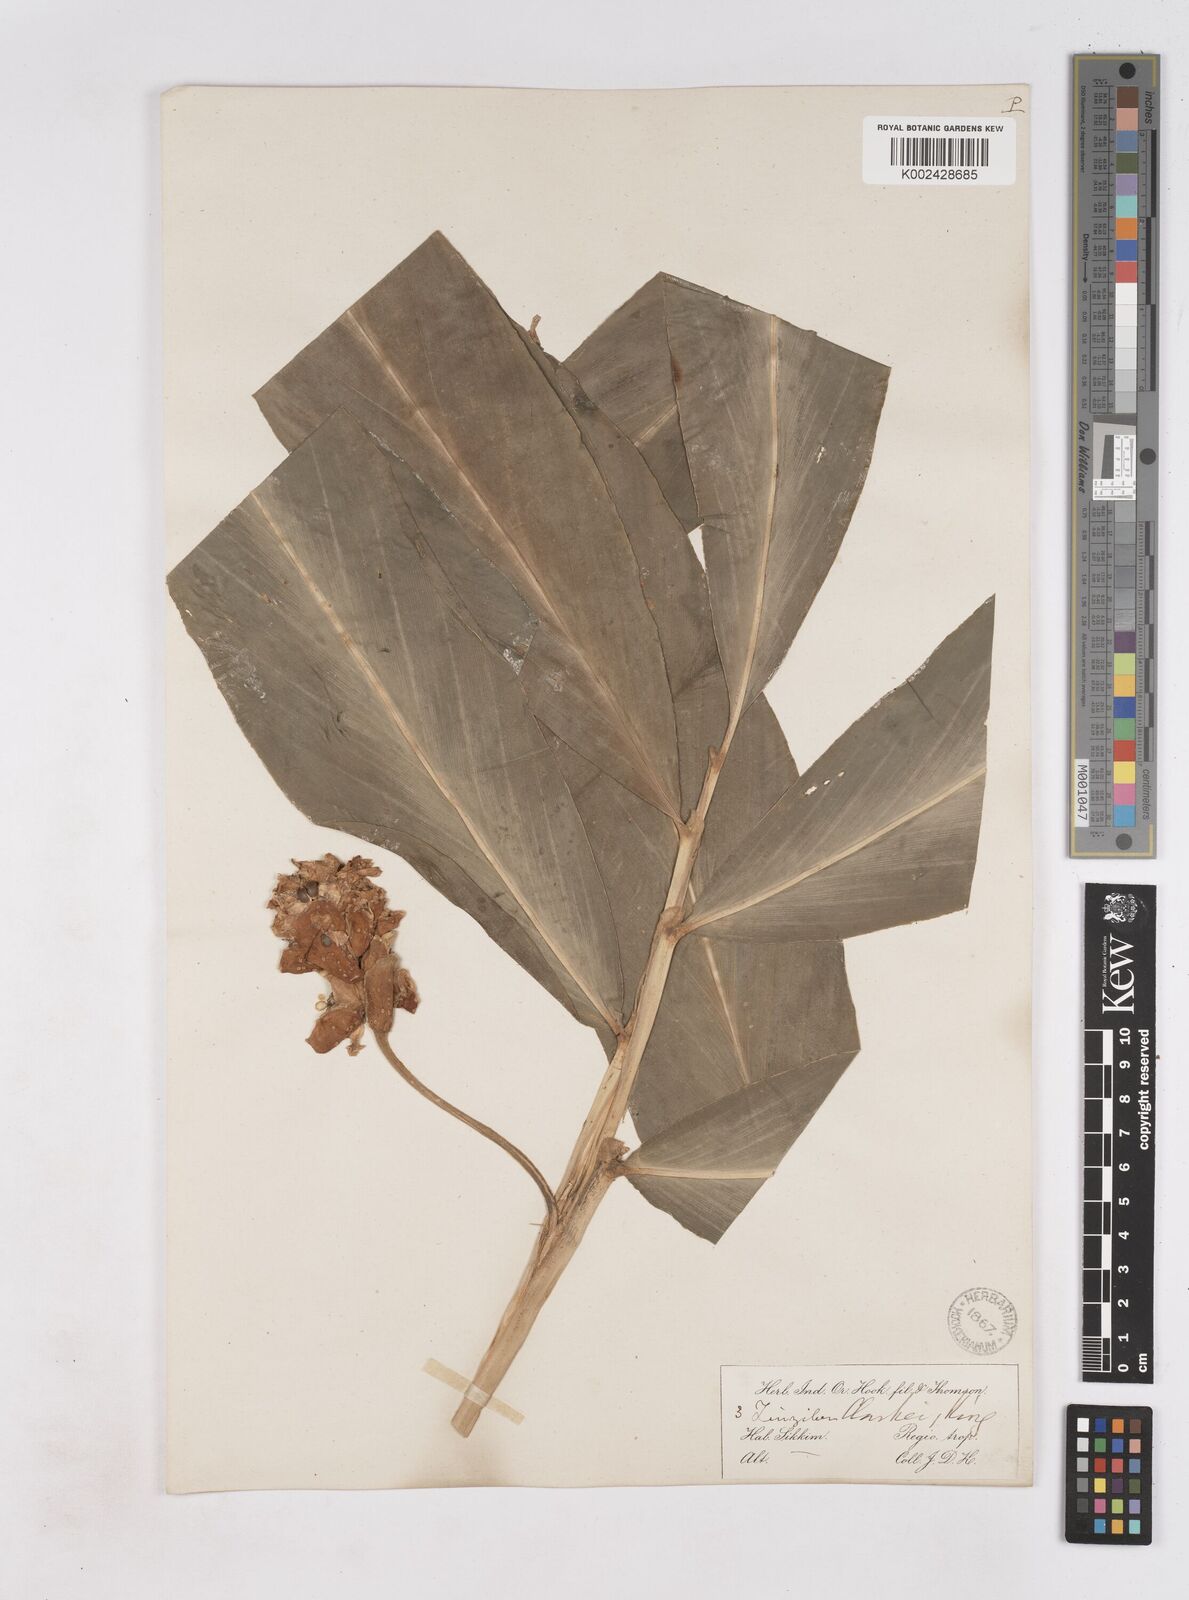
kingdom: Plantae
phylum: Tracheophyta
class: Liliopsida
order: Zingiberales
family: Zingiberaceae
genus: Zingiber
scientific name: Zingiber clarkei
